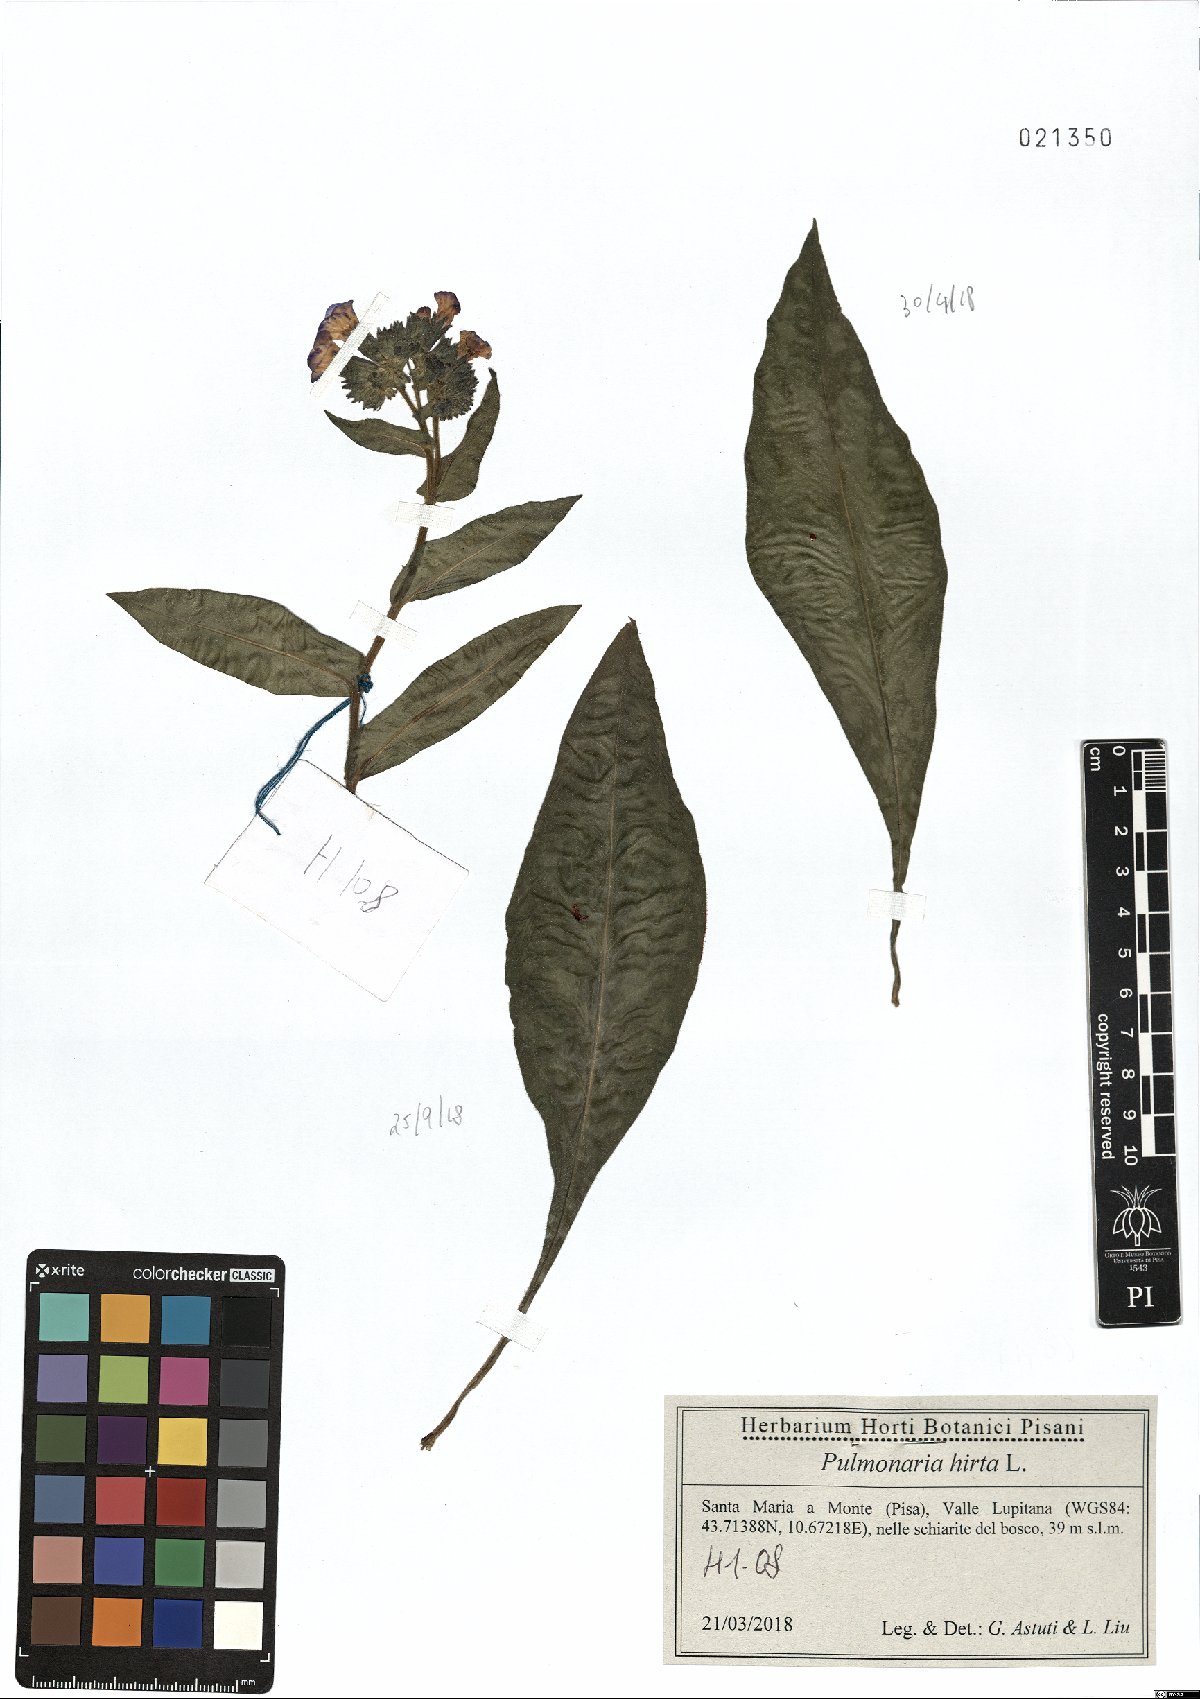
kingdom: Plantae
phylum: Tracheophyta
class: Magnoliopsida
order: Boraginales
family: Boraginaceae
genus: Pulmonaria
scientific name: Pulmonaria hirta
